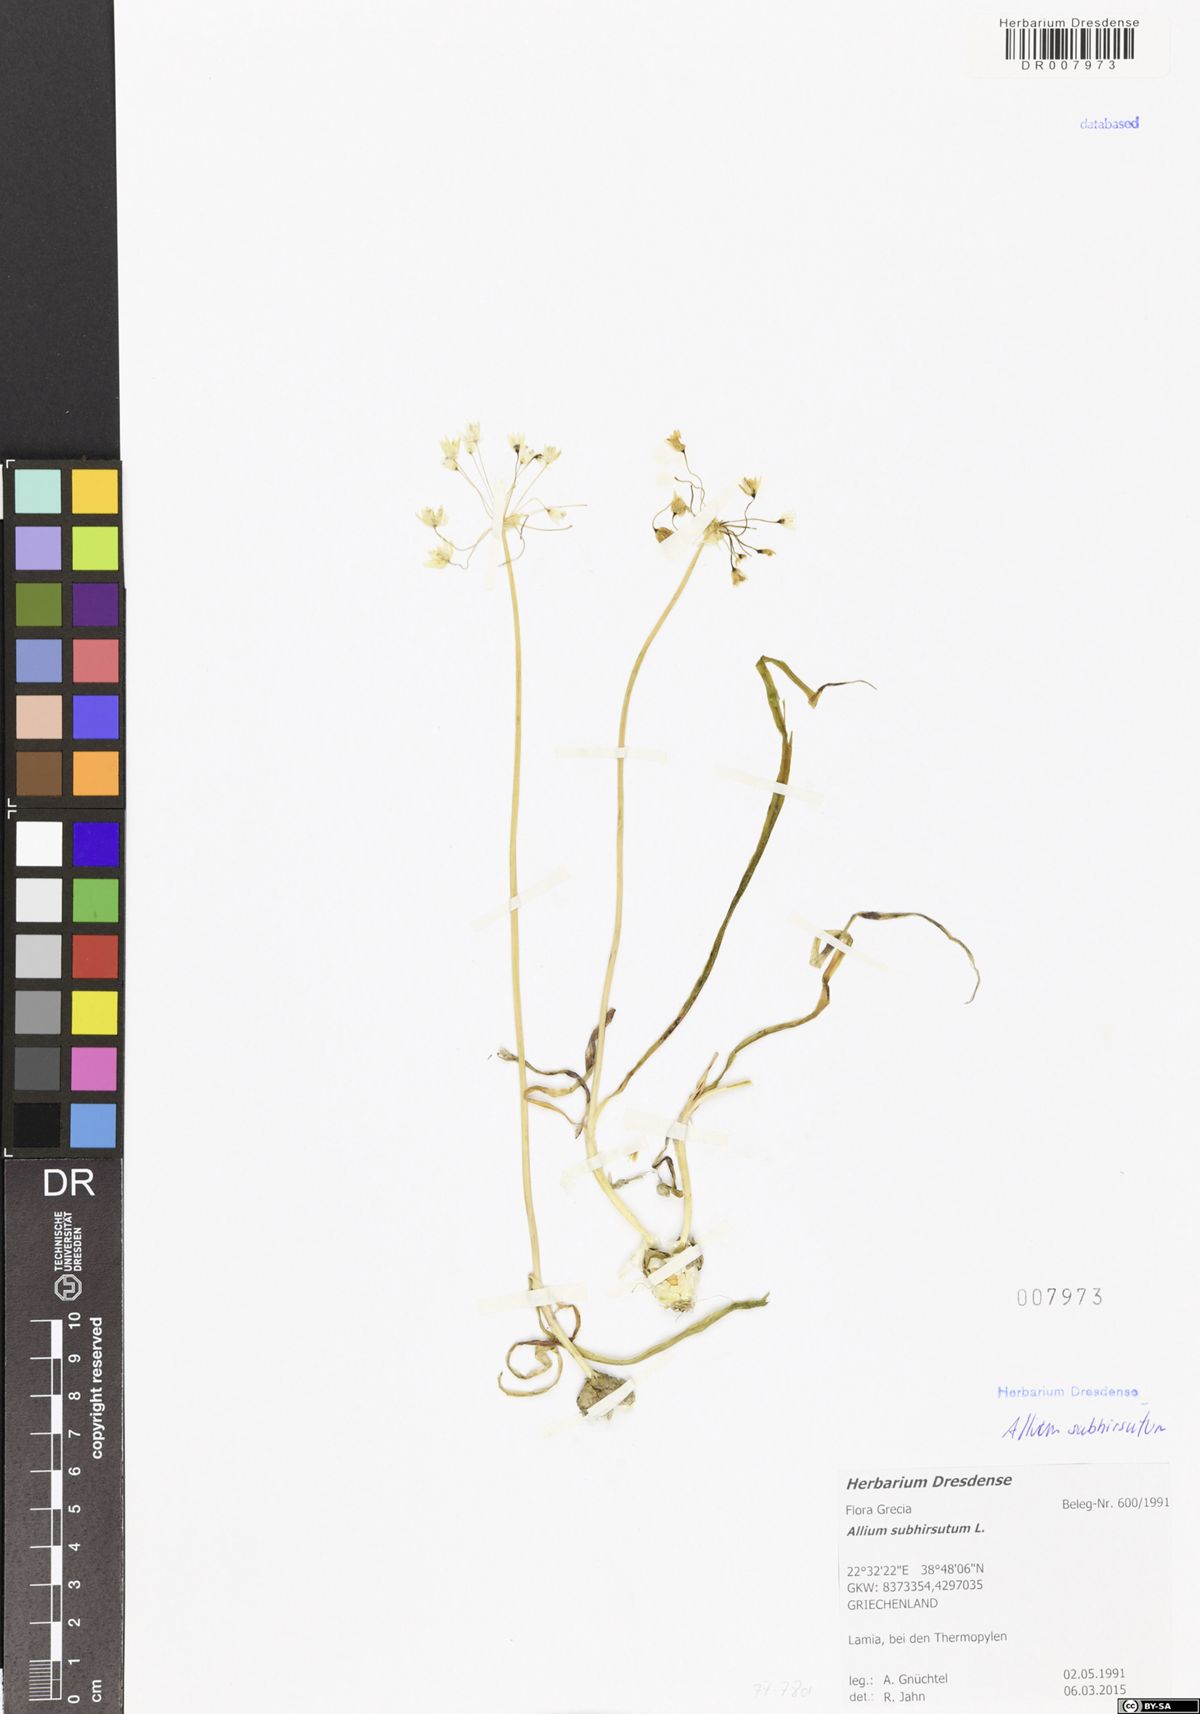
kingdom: Plantae
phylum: Tracheophyta
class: Liliopsida
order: Asparagales
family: Amaryllidaceae
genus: Allium
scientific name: Allium subhirsutum
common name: Hairy garlic
